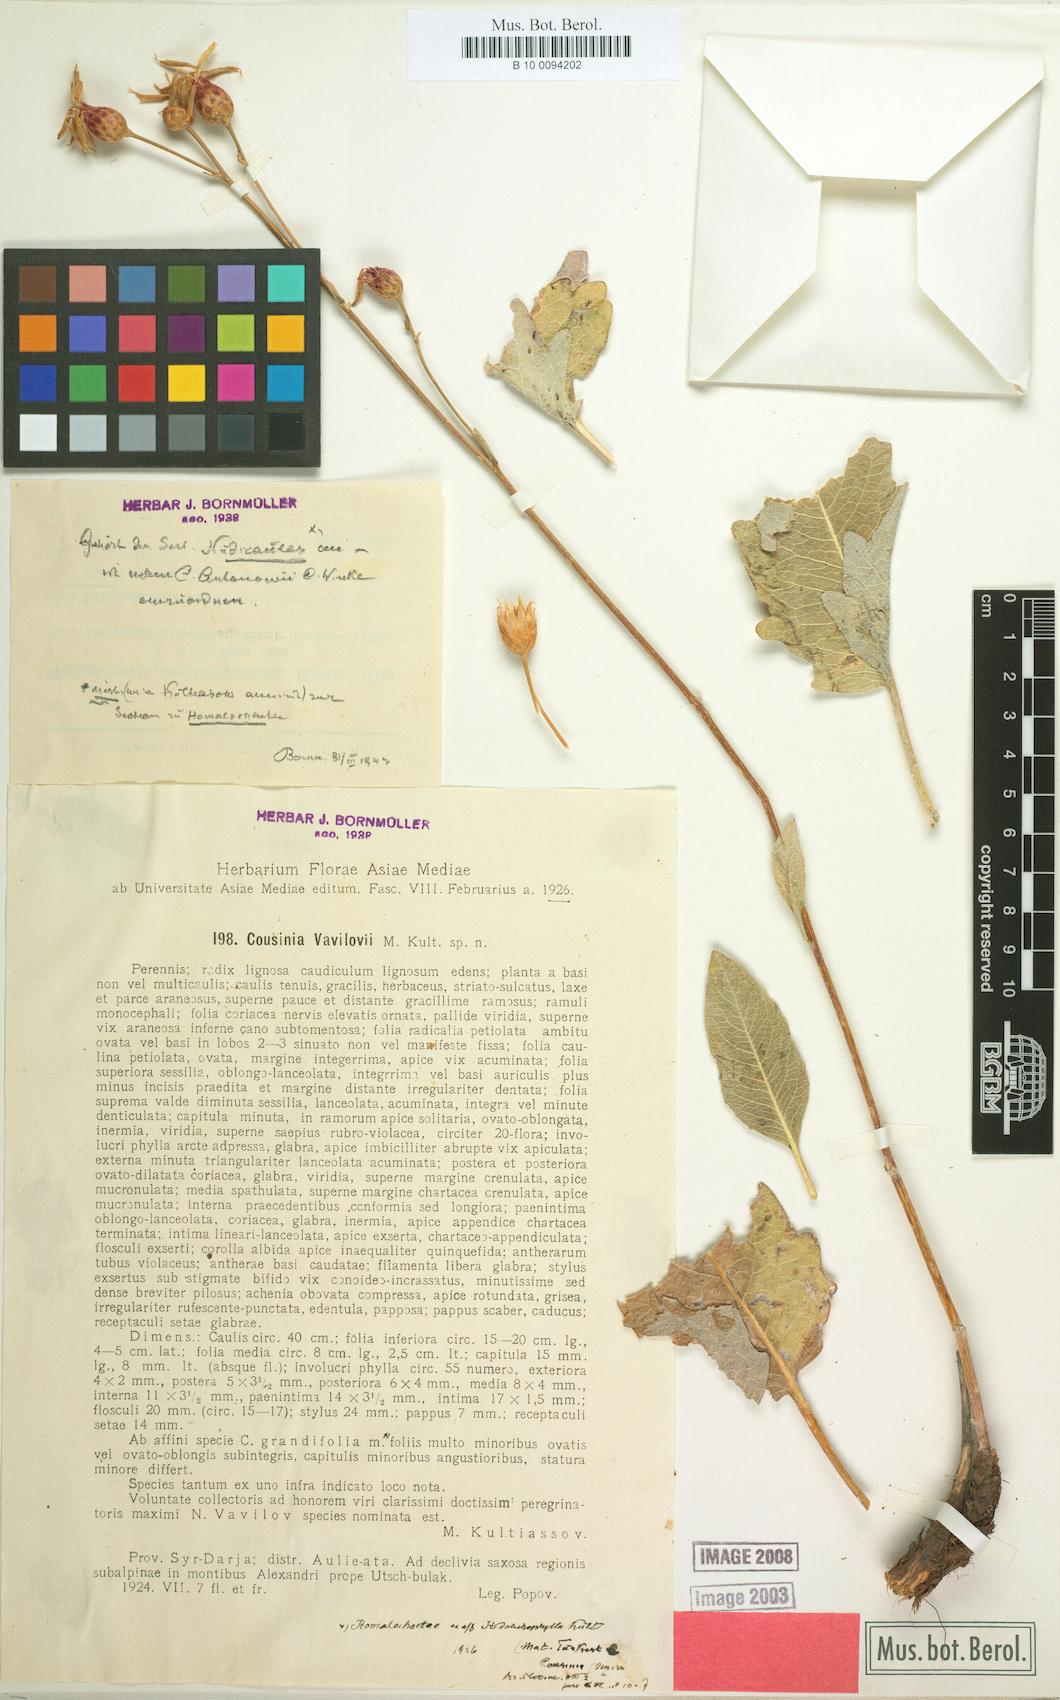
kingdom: Plantae
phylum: Tracheophyta
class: Magnoliopsida
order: Asterales
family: Asteraceae
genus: Arctium
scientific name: Arctium vavilovii
